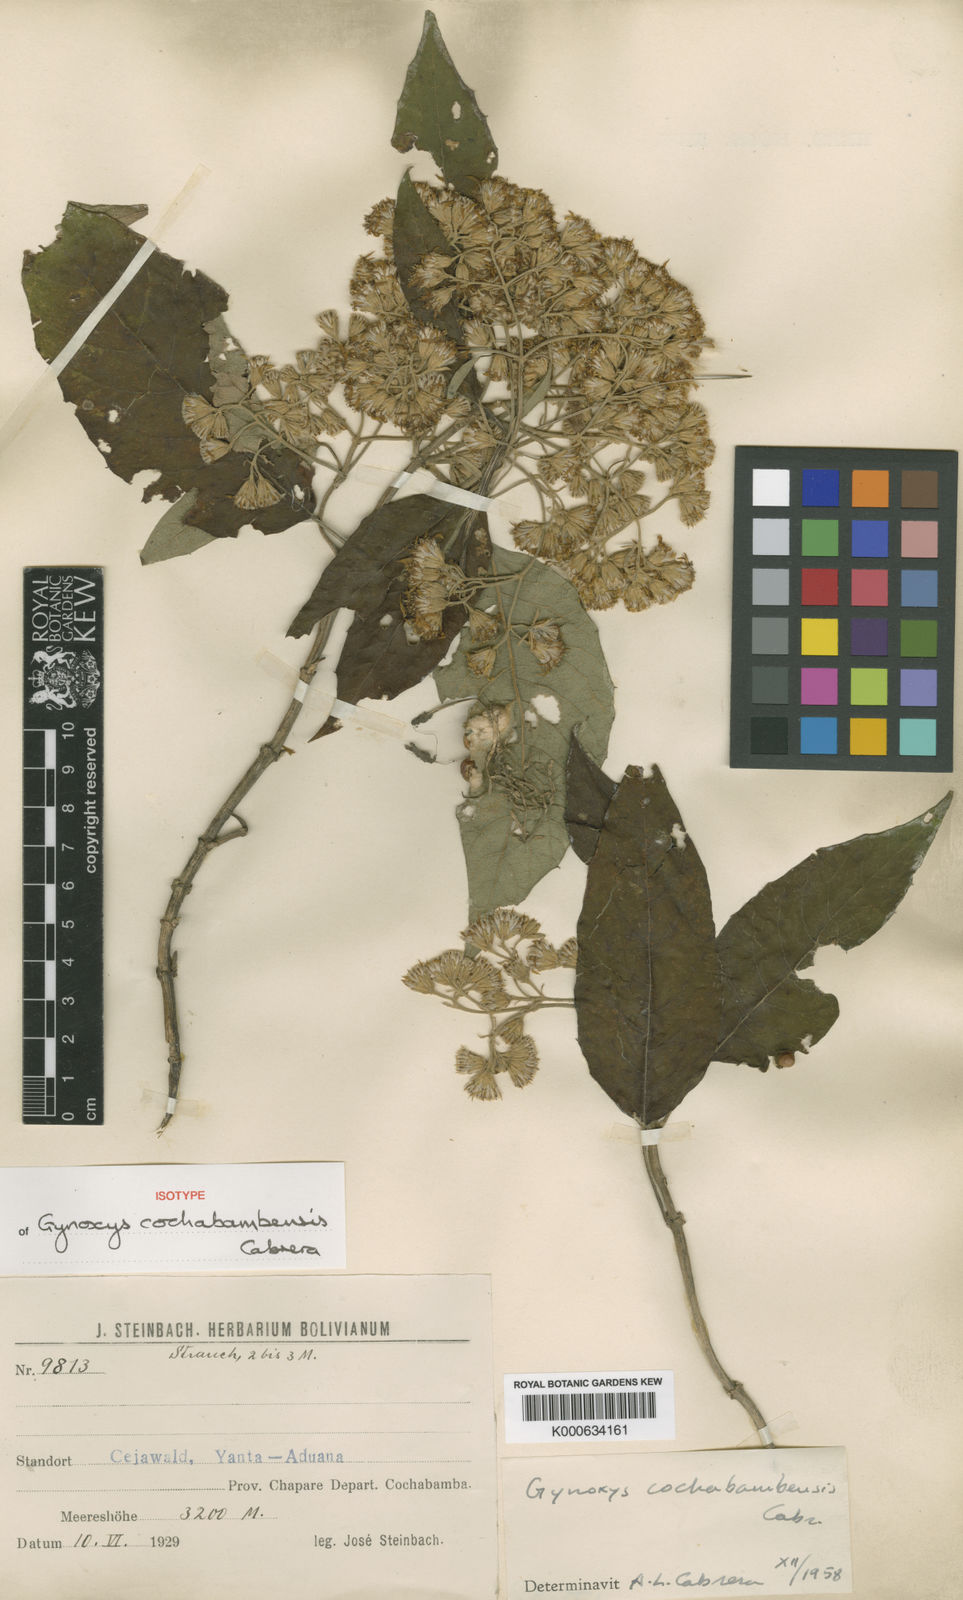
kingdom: Plantae
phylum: Tracheophyta
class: Magnoliopsida
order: Asterales
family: Asteraceae
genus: Gynoxys
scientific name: Gynoxys cochabambensis
